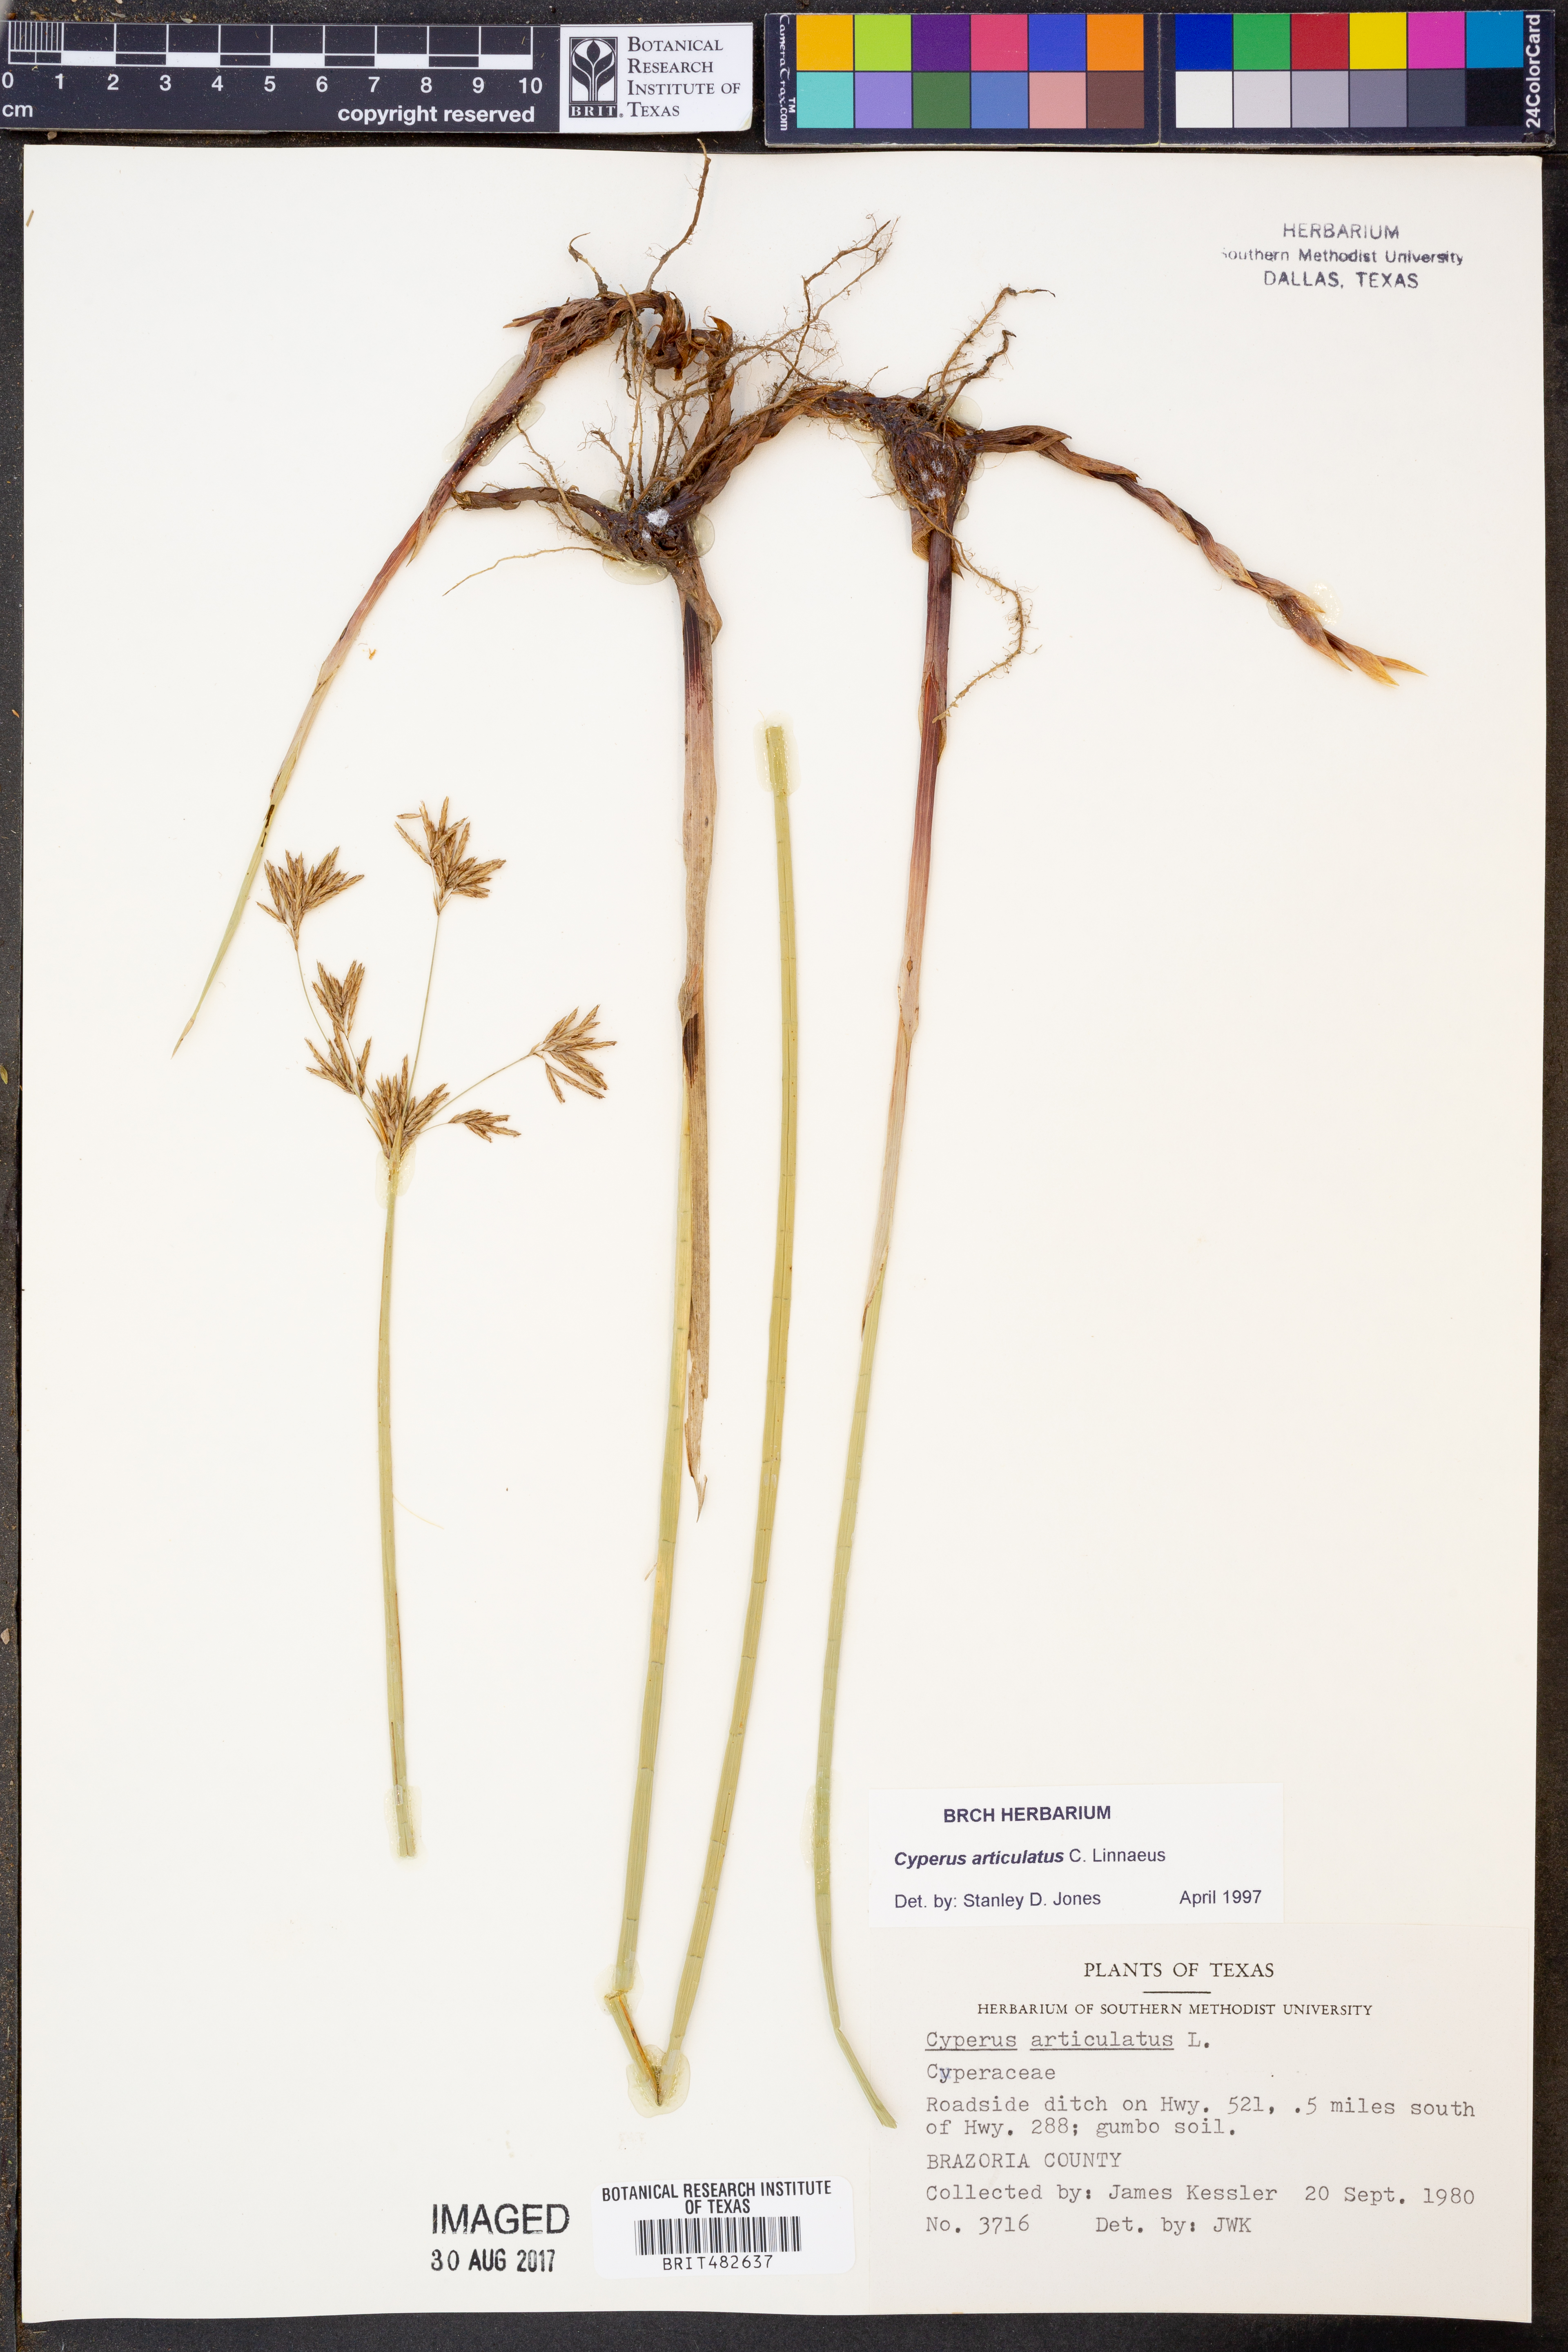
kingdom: Plantae
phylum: Tracheophyta
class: Liliopsida
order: Poales
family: Cyperaceae
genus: Cyperus
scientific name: Cyperus articulatus
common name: Jointed flatsedge
